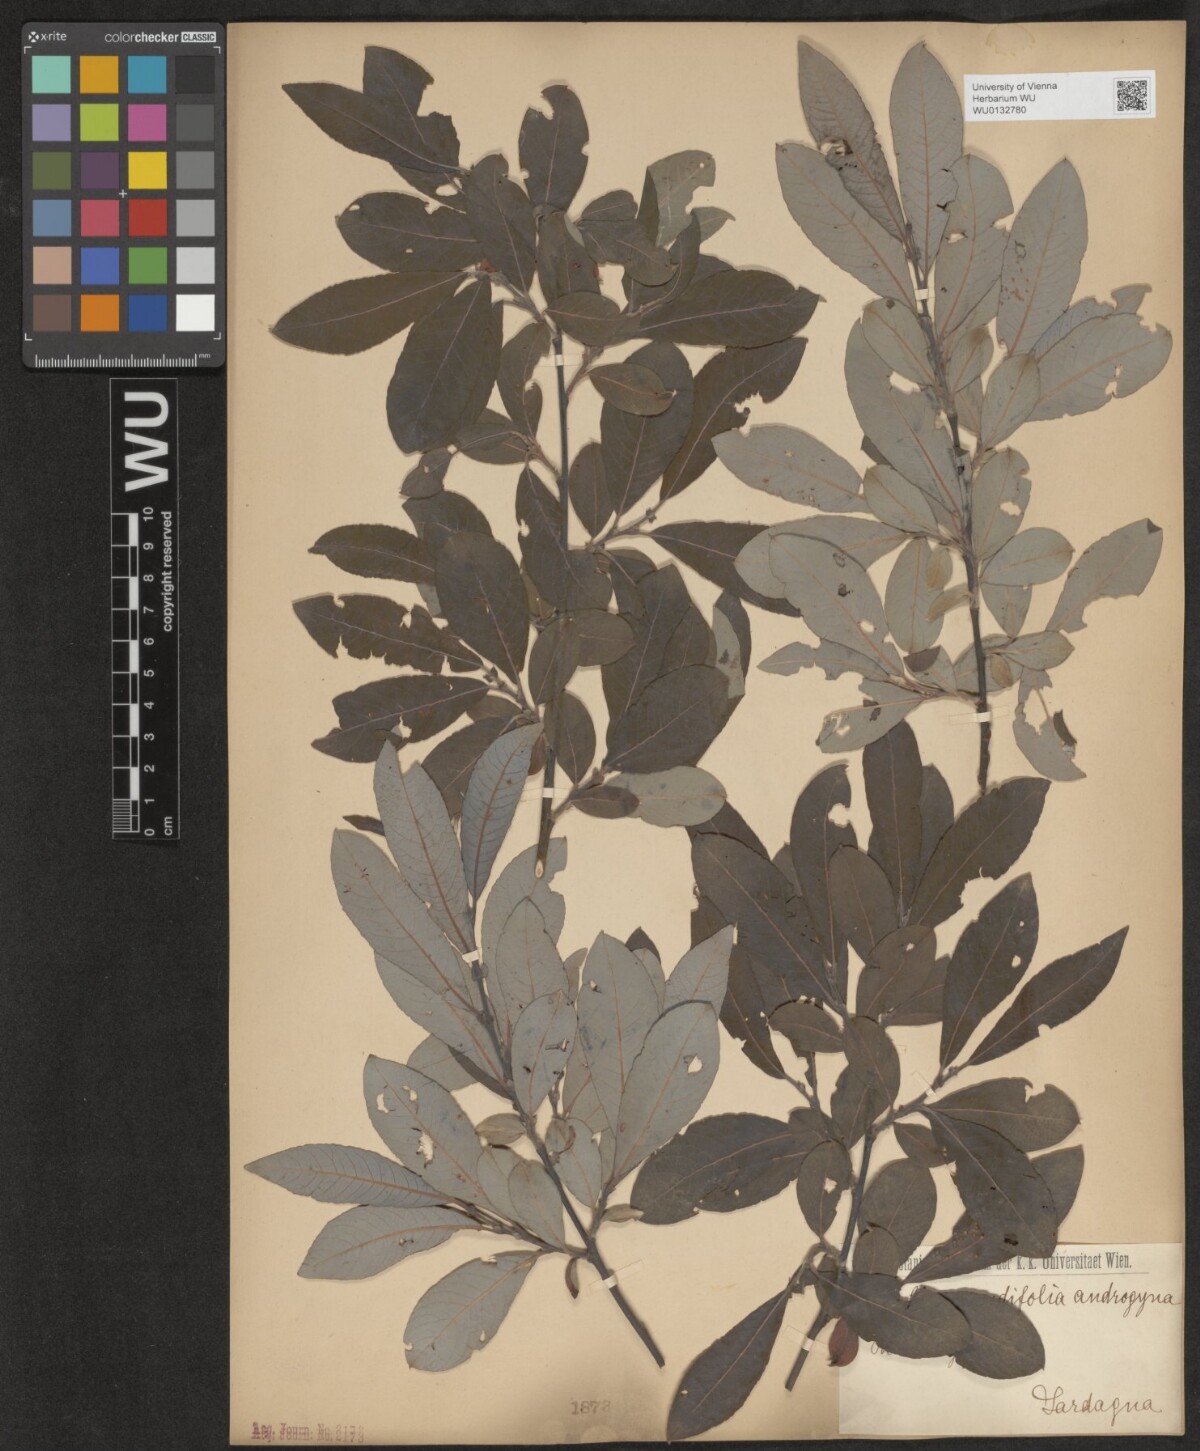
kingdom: Plantae
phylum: Tracheophyta
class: Magnoliopsida
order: Malpighiales
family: Salicaceae
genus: Salix
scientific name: Salix appendiculata
